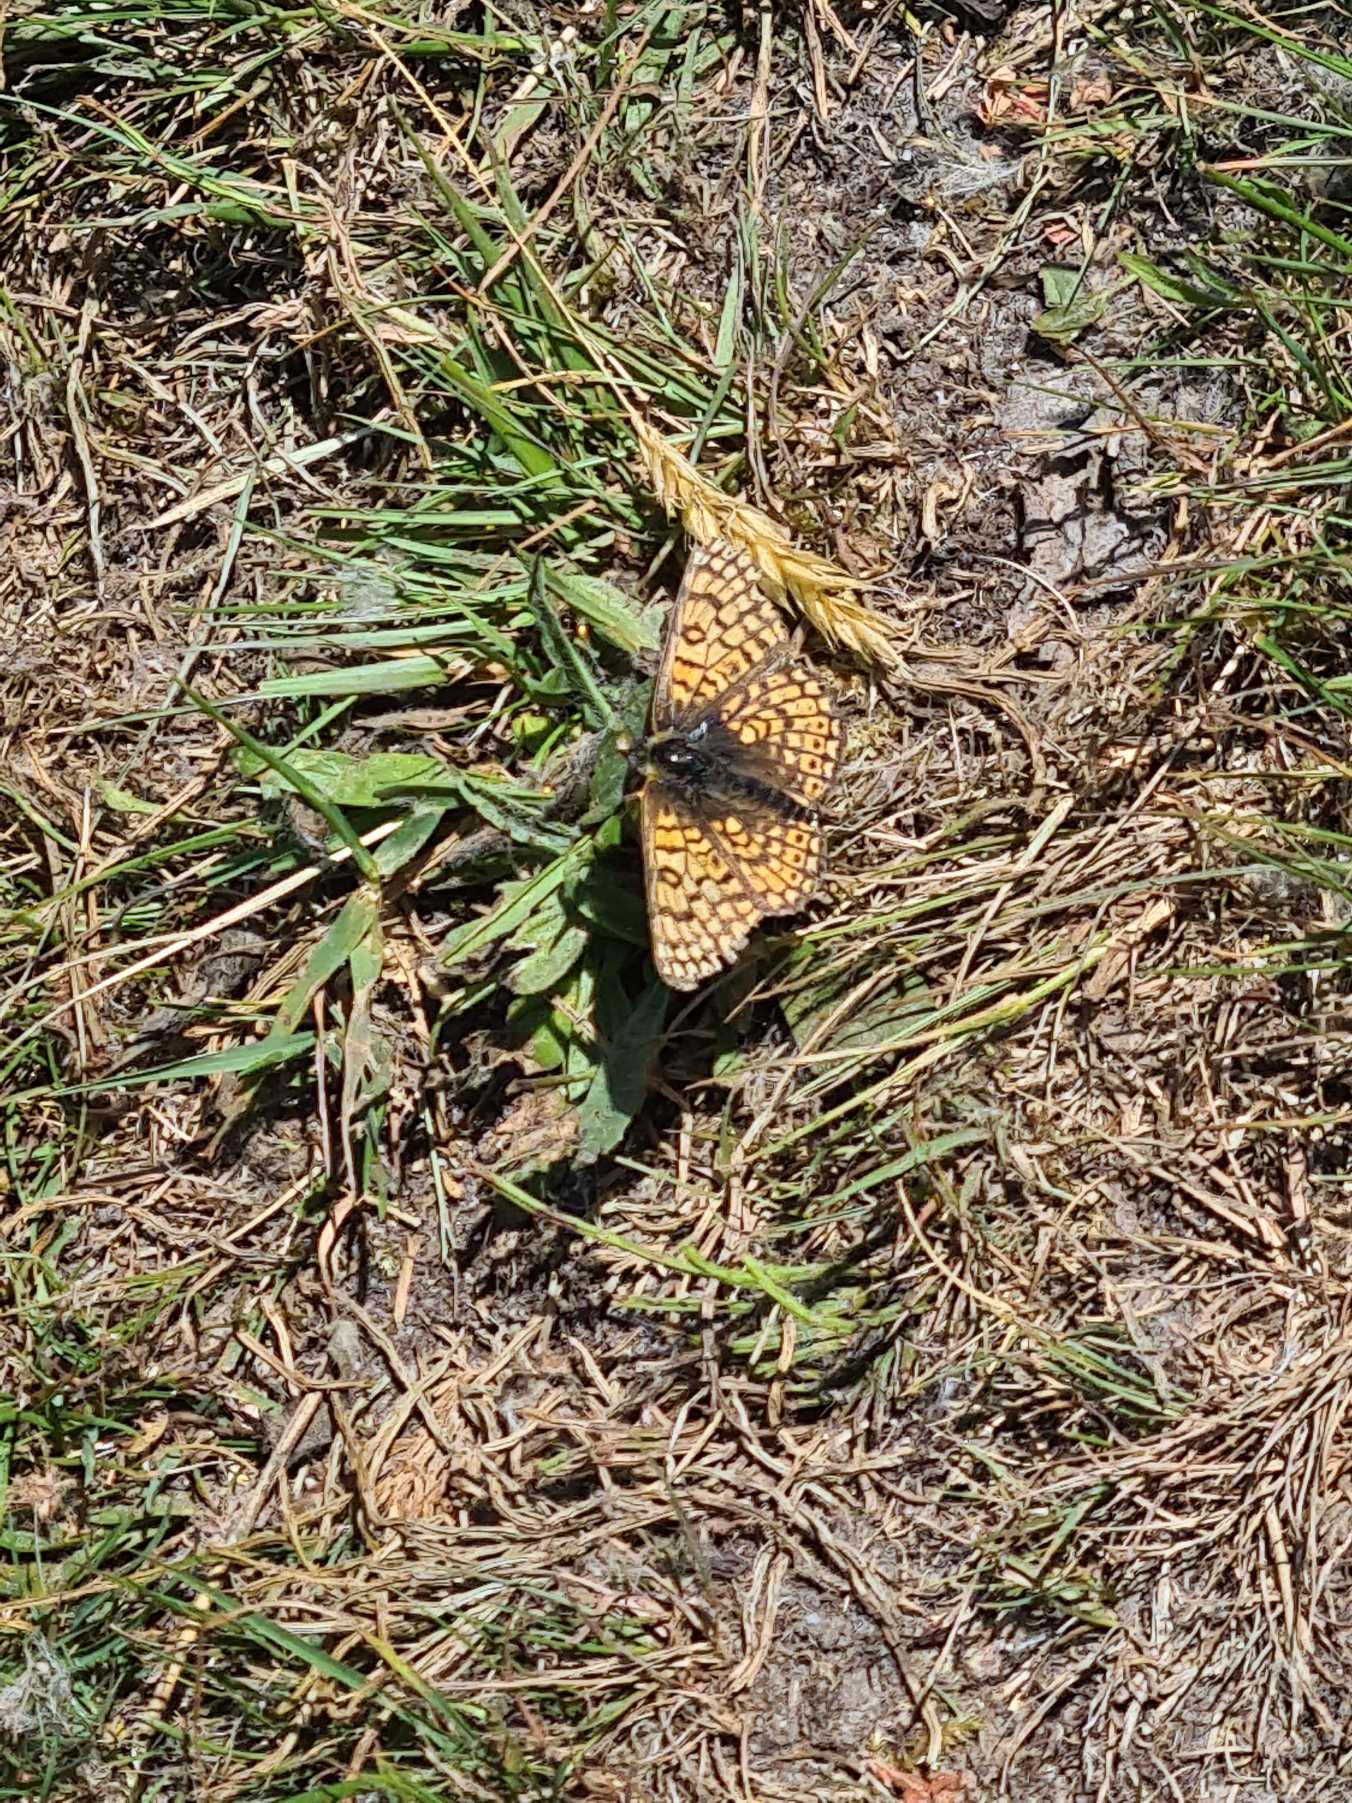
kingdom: Animalia
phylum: Arthropoda
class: Insecta
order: Lepidoptera
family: Nymphalidae
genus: Melitaea
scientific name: Melitaea cinxia
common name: Okkergul pletvinge
